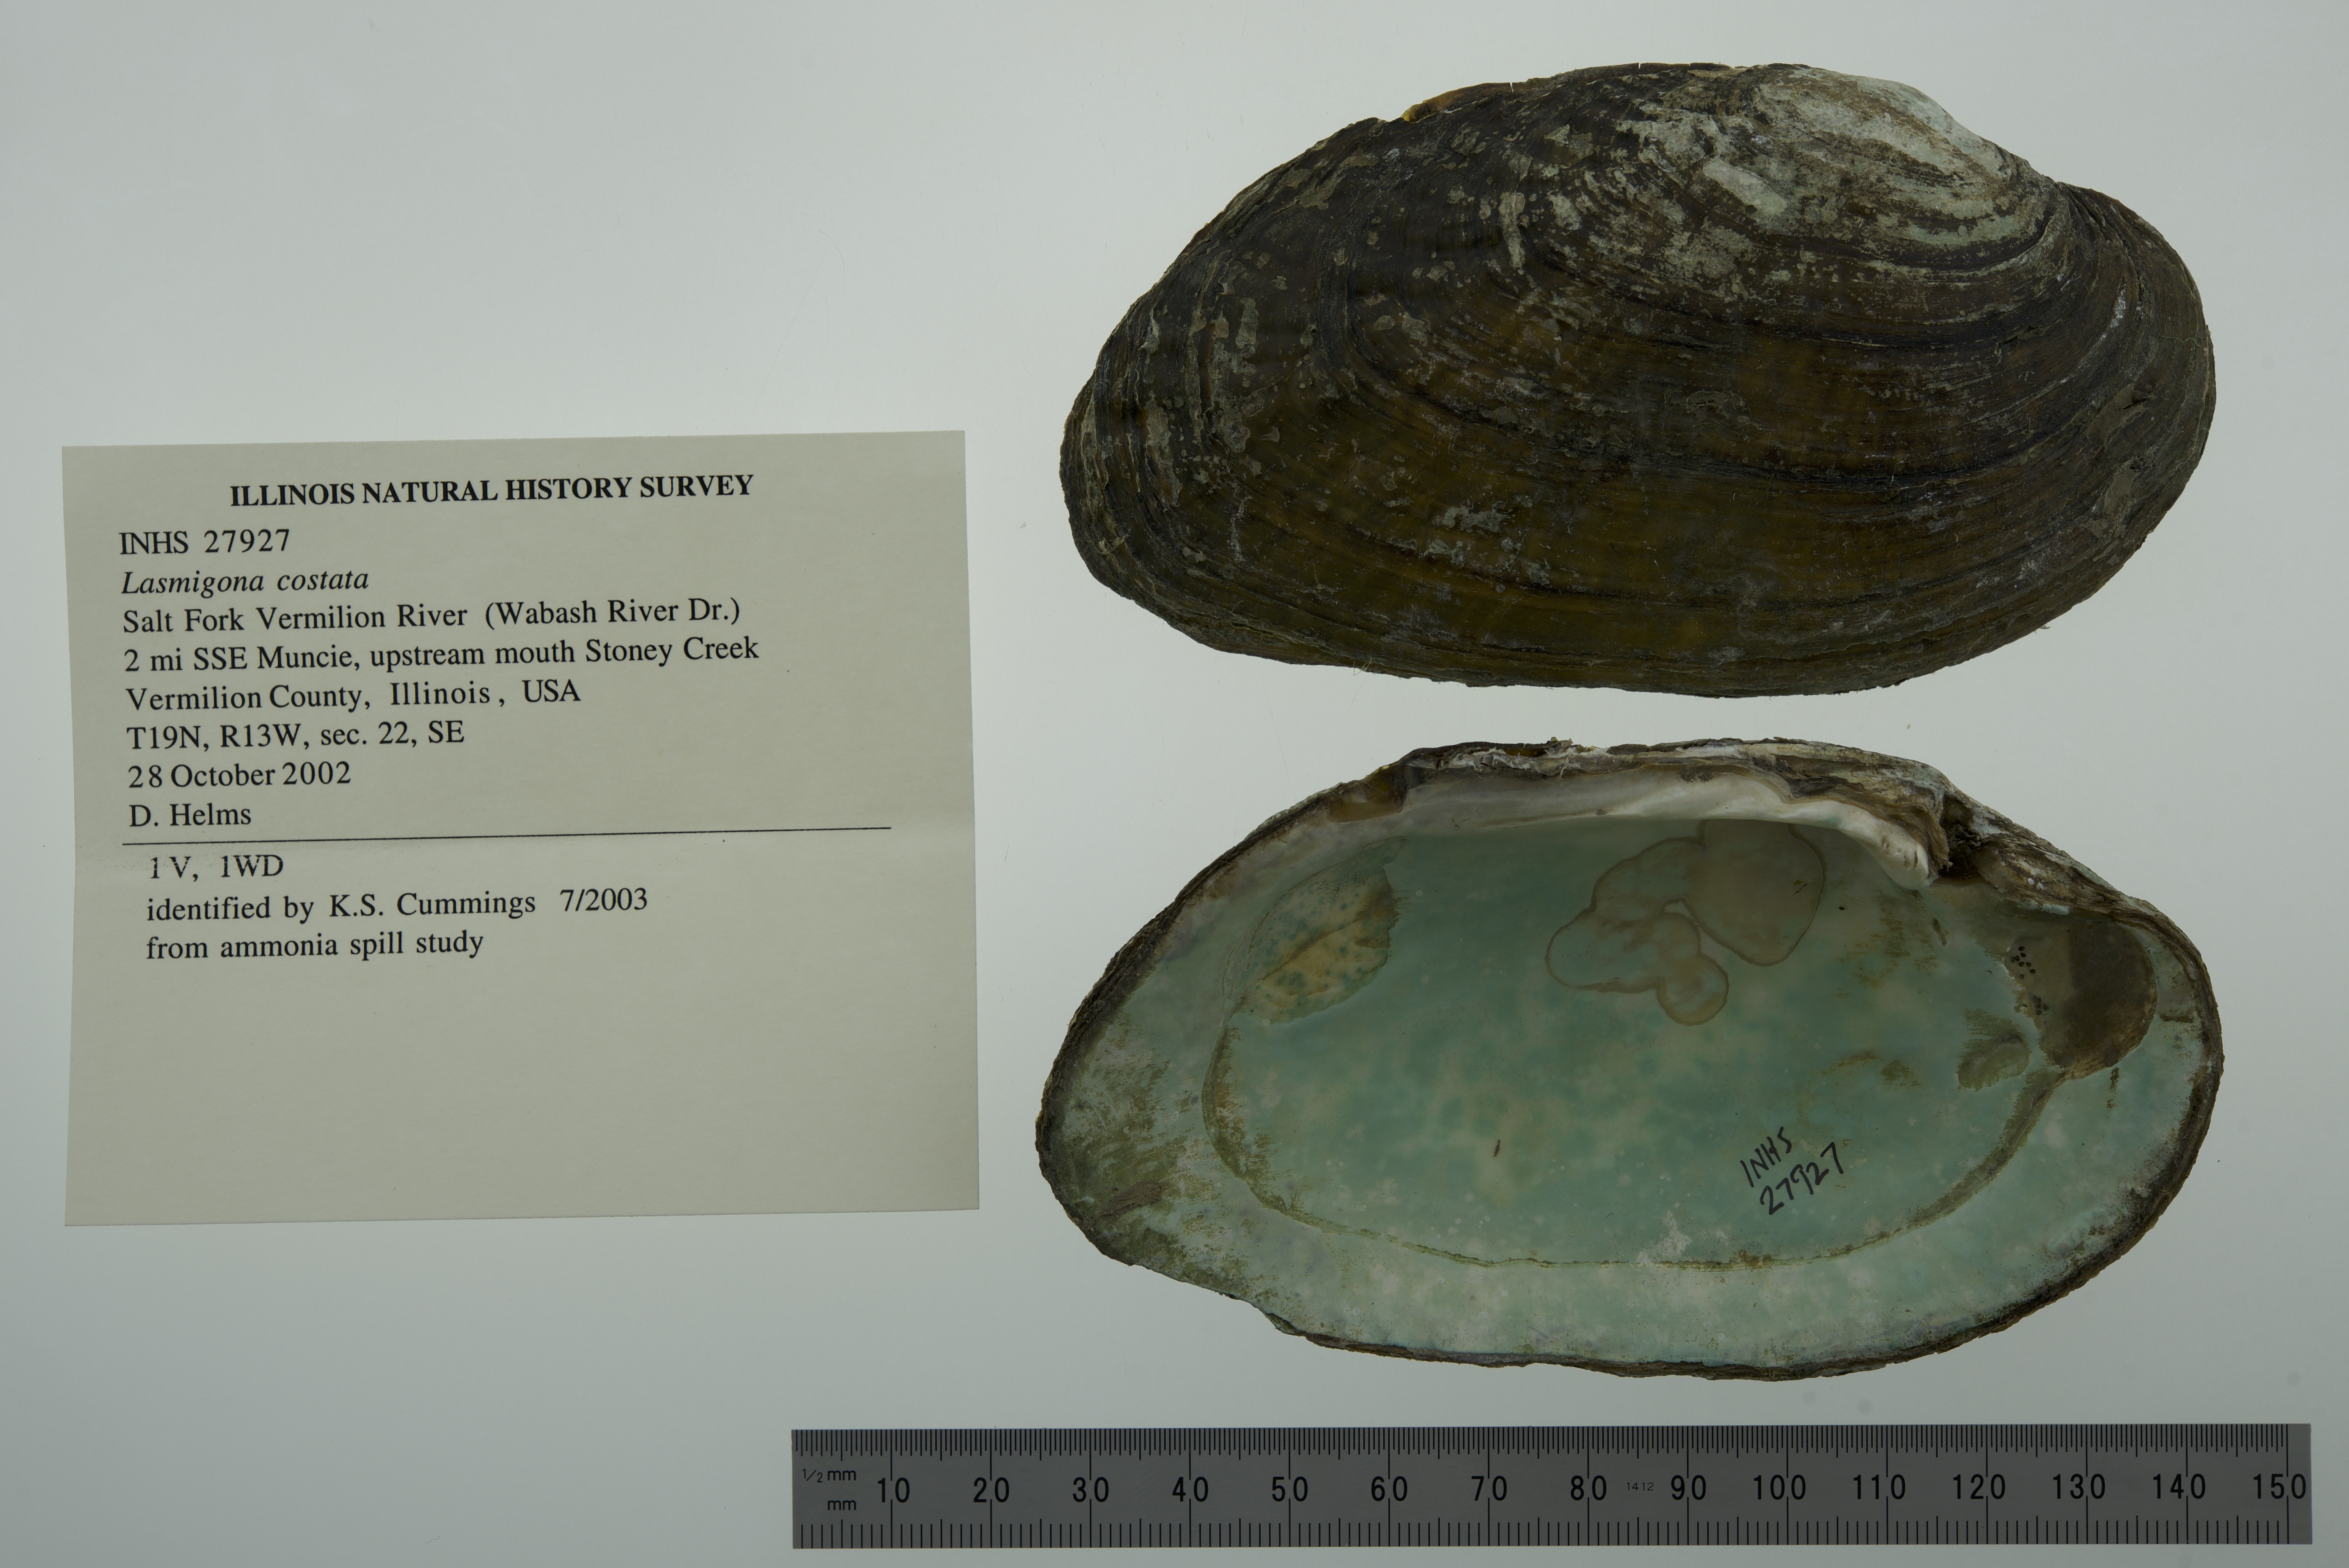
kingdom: Animalia
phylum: Mollusca
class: Bivalvia
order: Unionida
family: Unionidae
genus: Lasmigona
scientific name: Lasmigona costata
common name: Flutedshell
